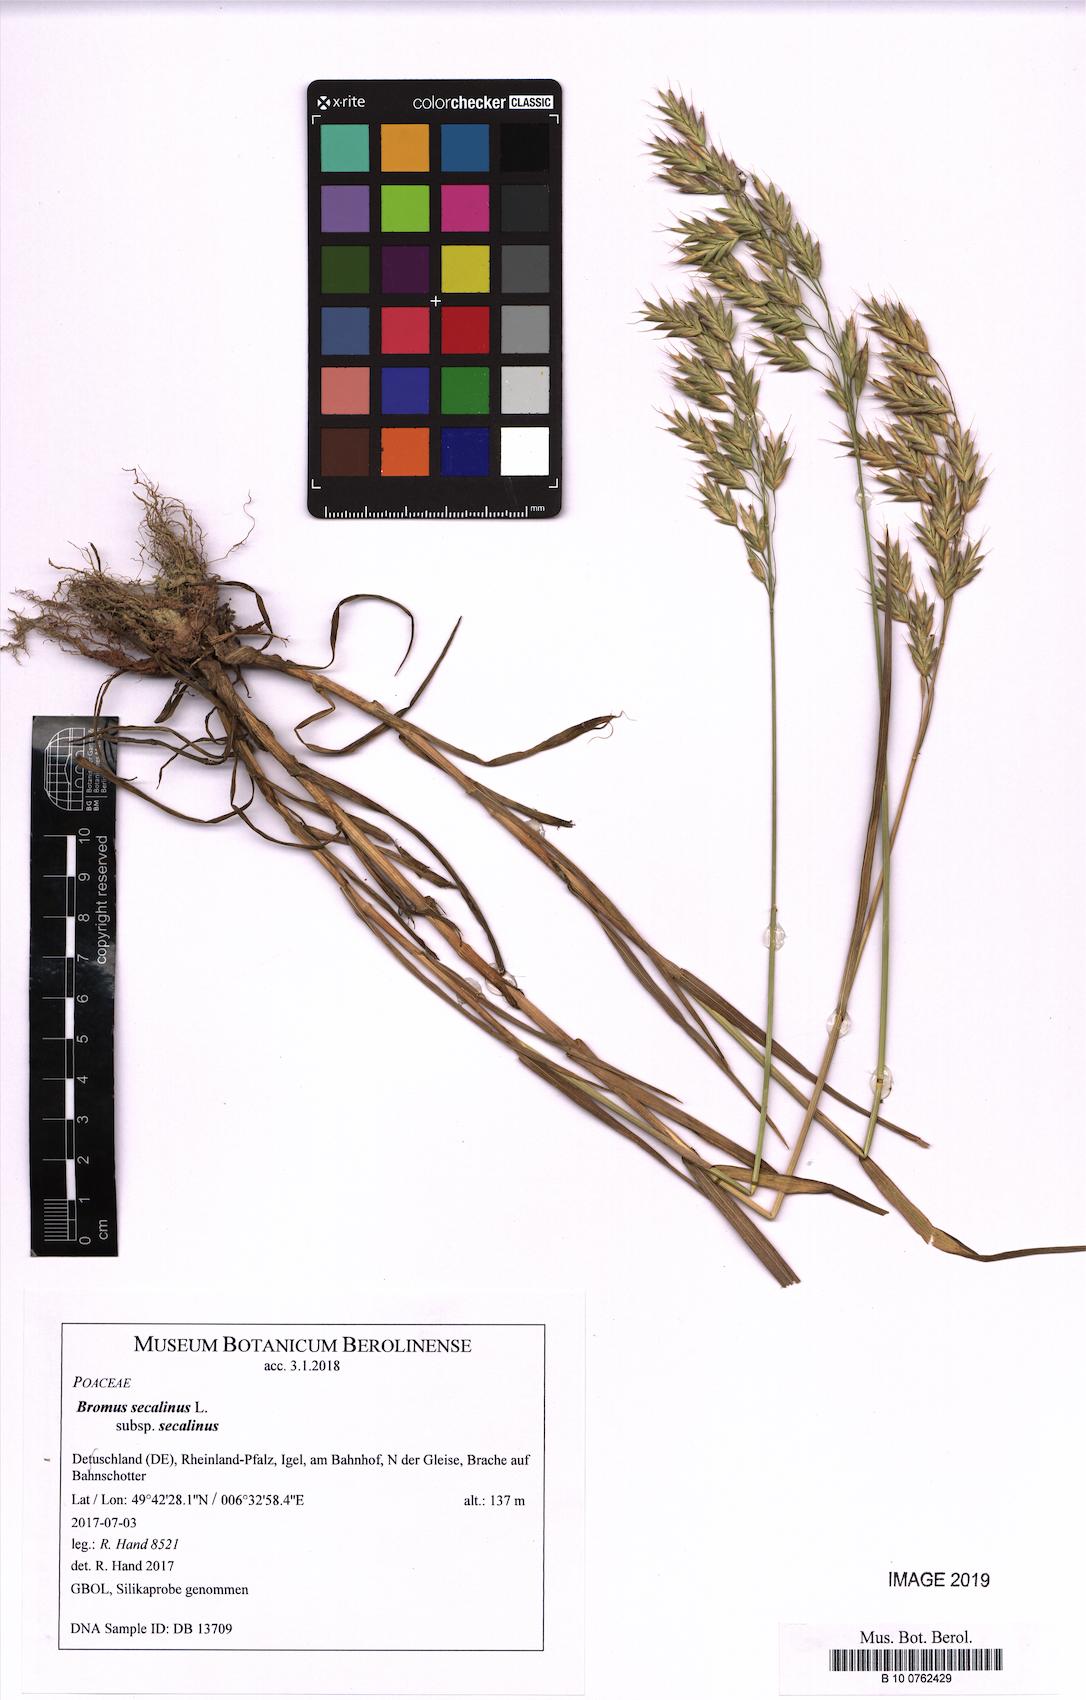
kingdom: Plantae
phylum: Tracheophyta
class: Liliopsida
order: Poales
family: Poaceae
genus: Bromus
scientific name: Bromus secalinus
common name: Rye brome
